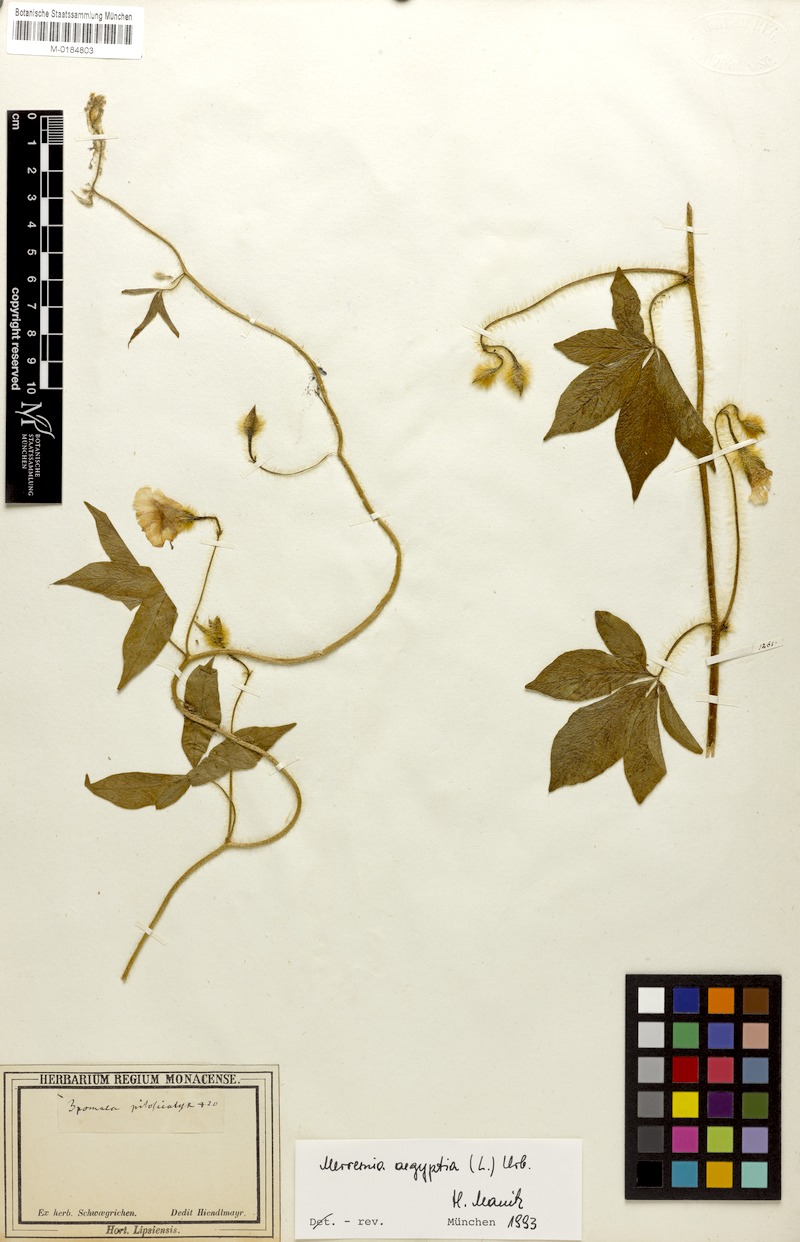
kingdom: Plantae
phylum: Tracheophyta
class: Magnoliopsida
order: Solanales
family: Convolvulaceae
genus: Distimake
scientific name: Distimake aegyptius
